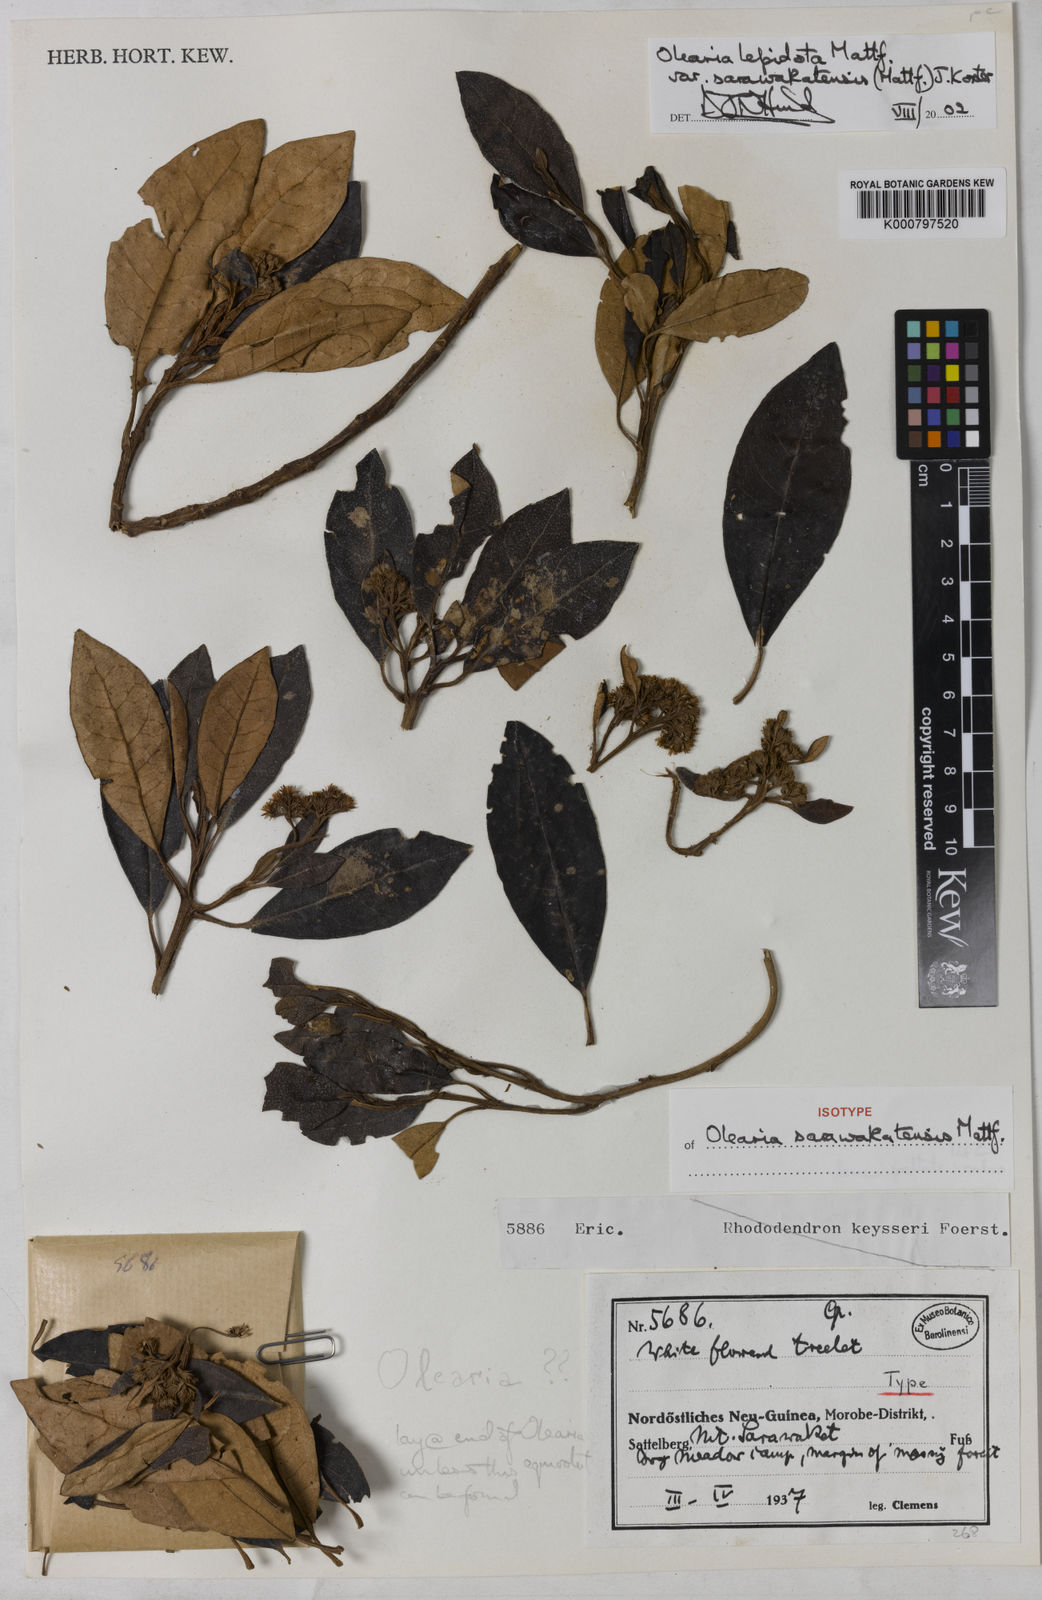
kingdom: Plantae
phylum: Tracheophyta
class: Magnoliopsida
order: Asterales
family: Asteraceae
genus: Olearia
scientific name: Olearia lepidota
